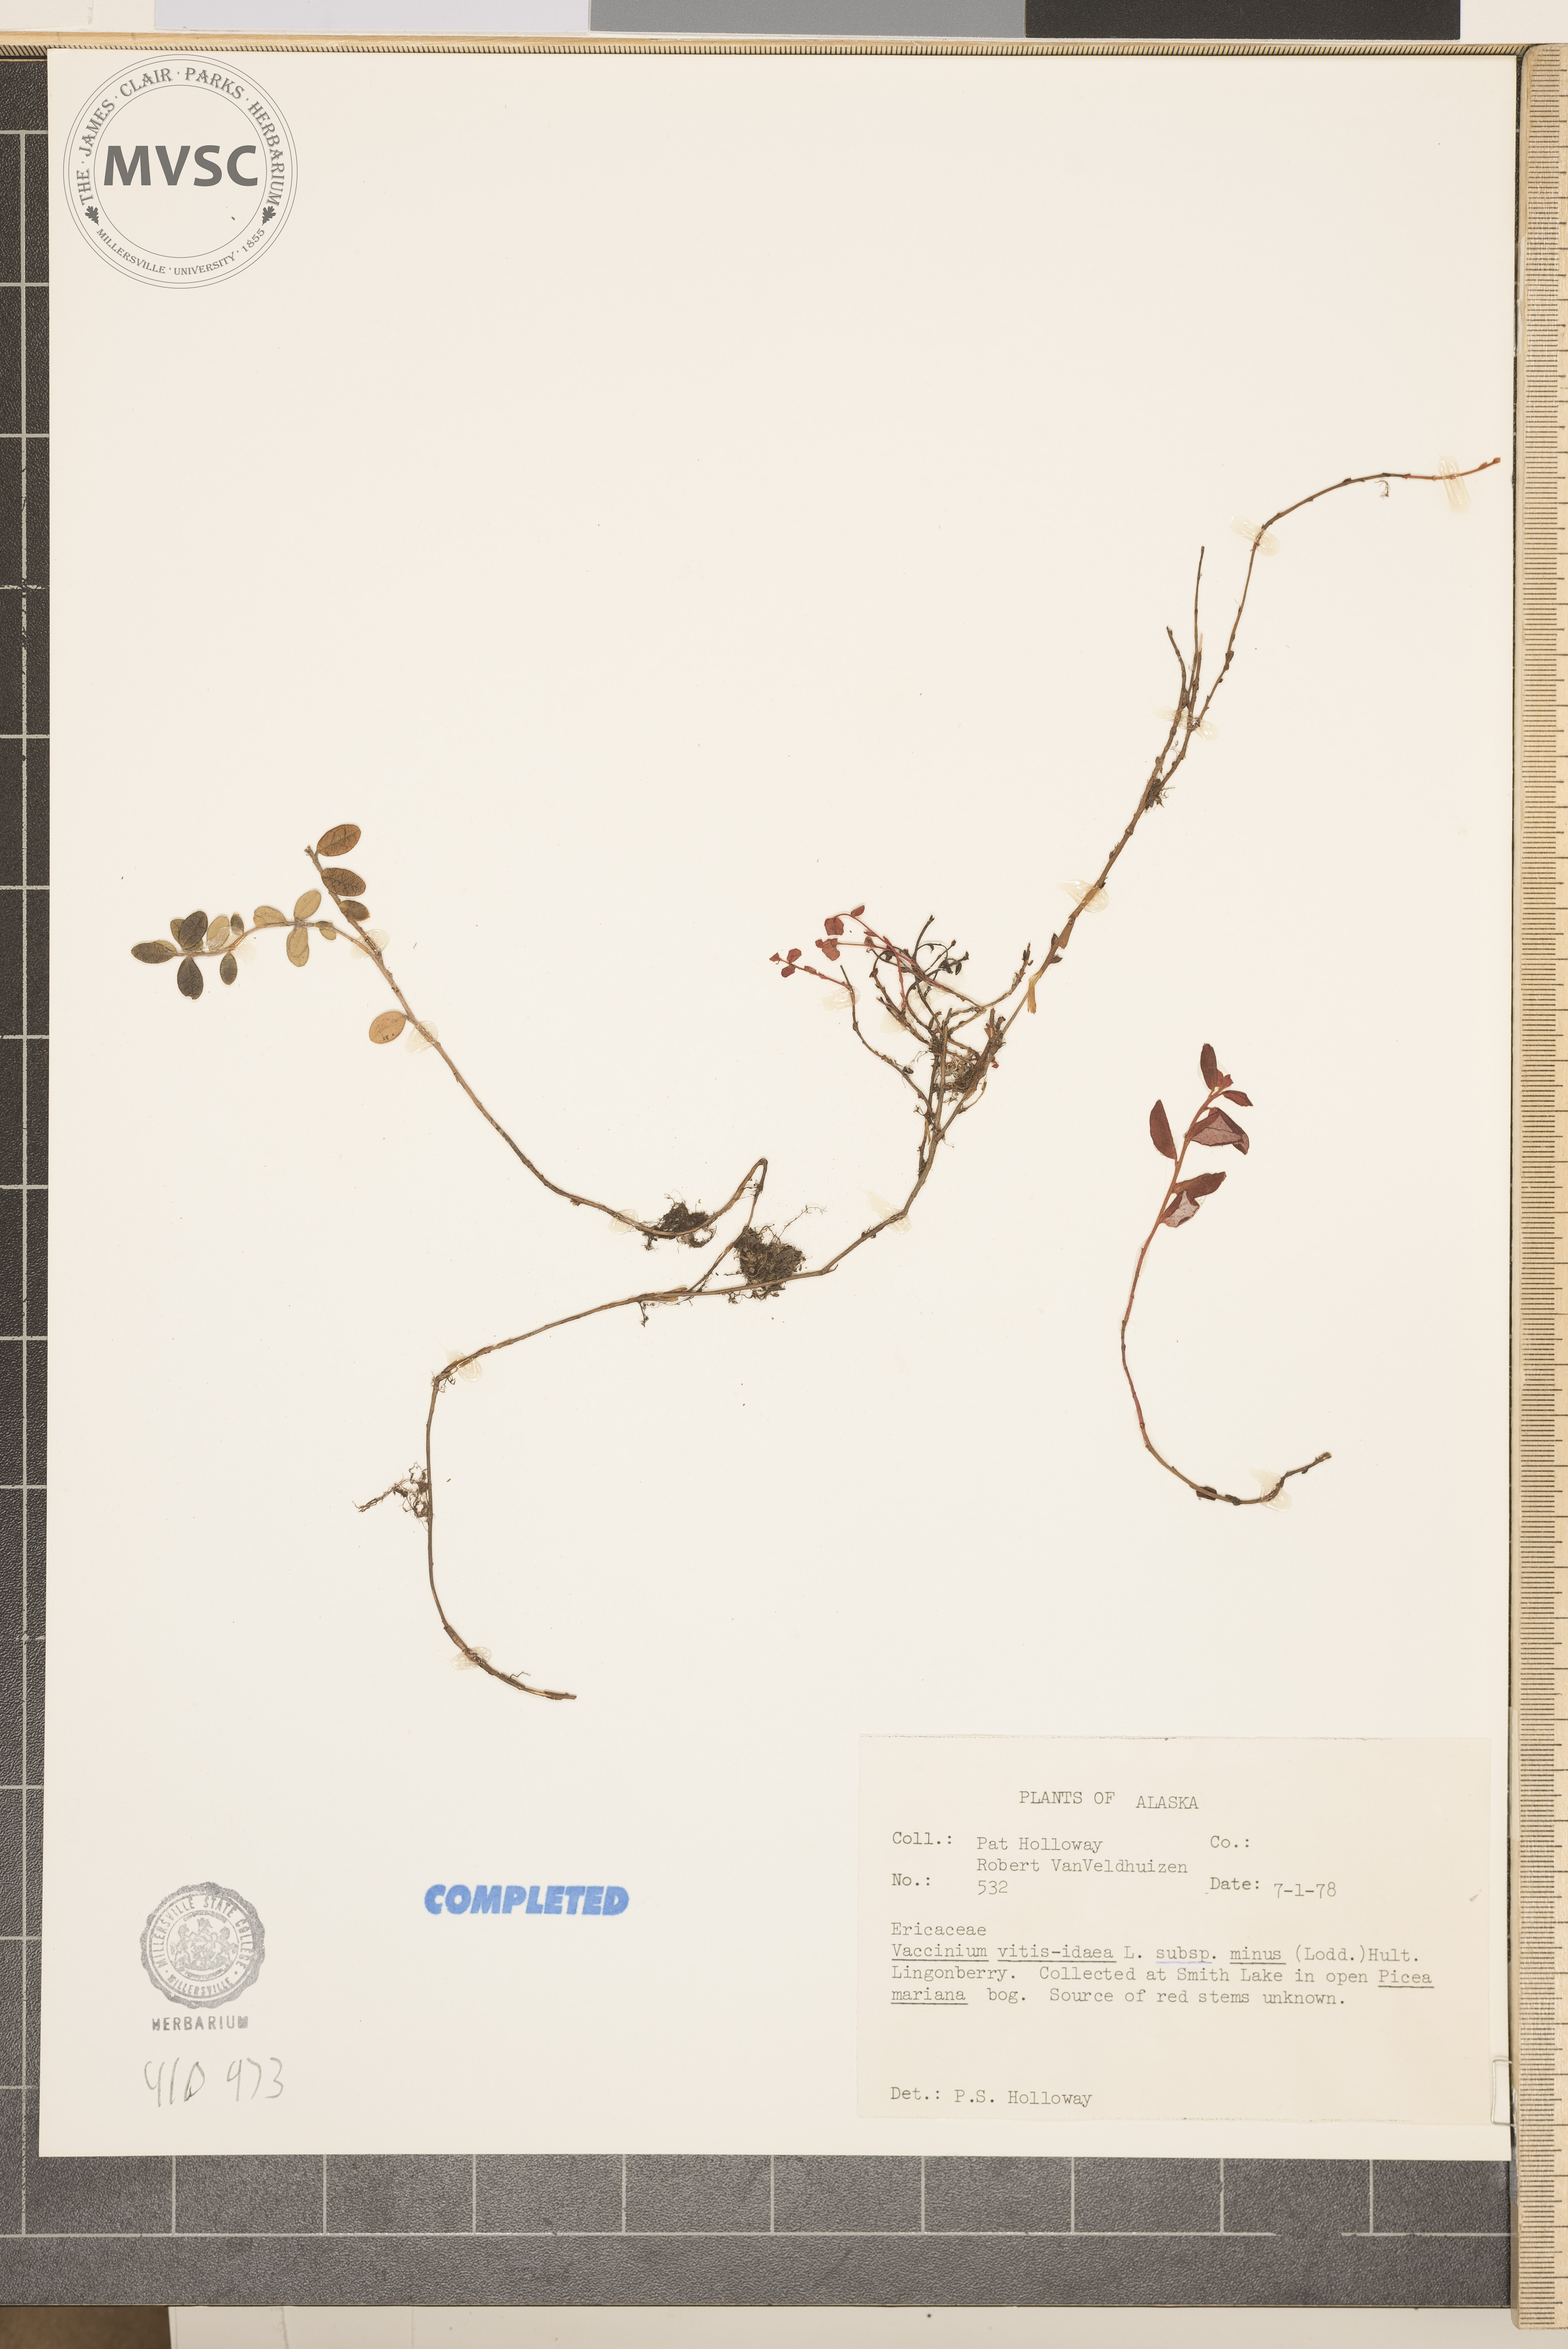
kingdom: Plantae
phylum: Tracheophyta
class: Magnoliopsida
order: Ericales
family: Ericaceae
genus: Vaccinium
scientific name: Vaccinium vitis-idaea
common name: Cowberry
